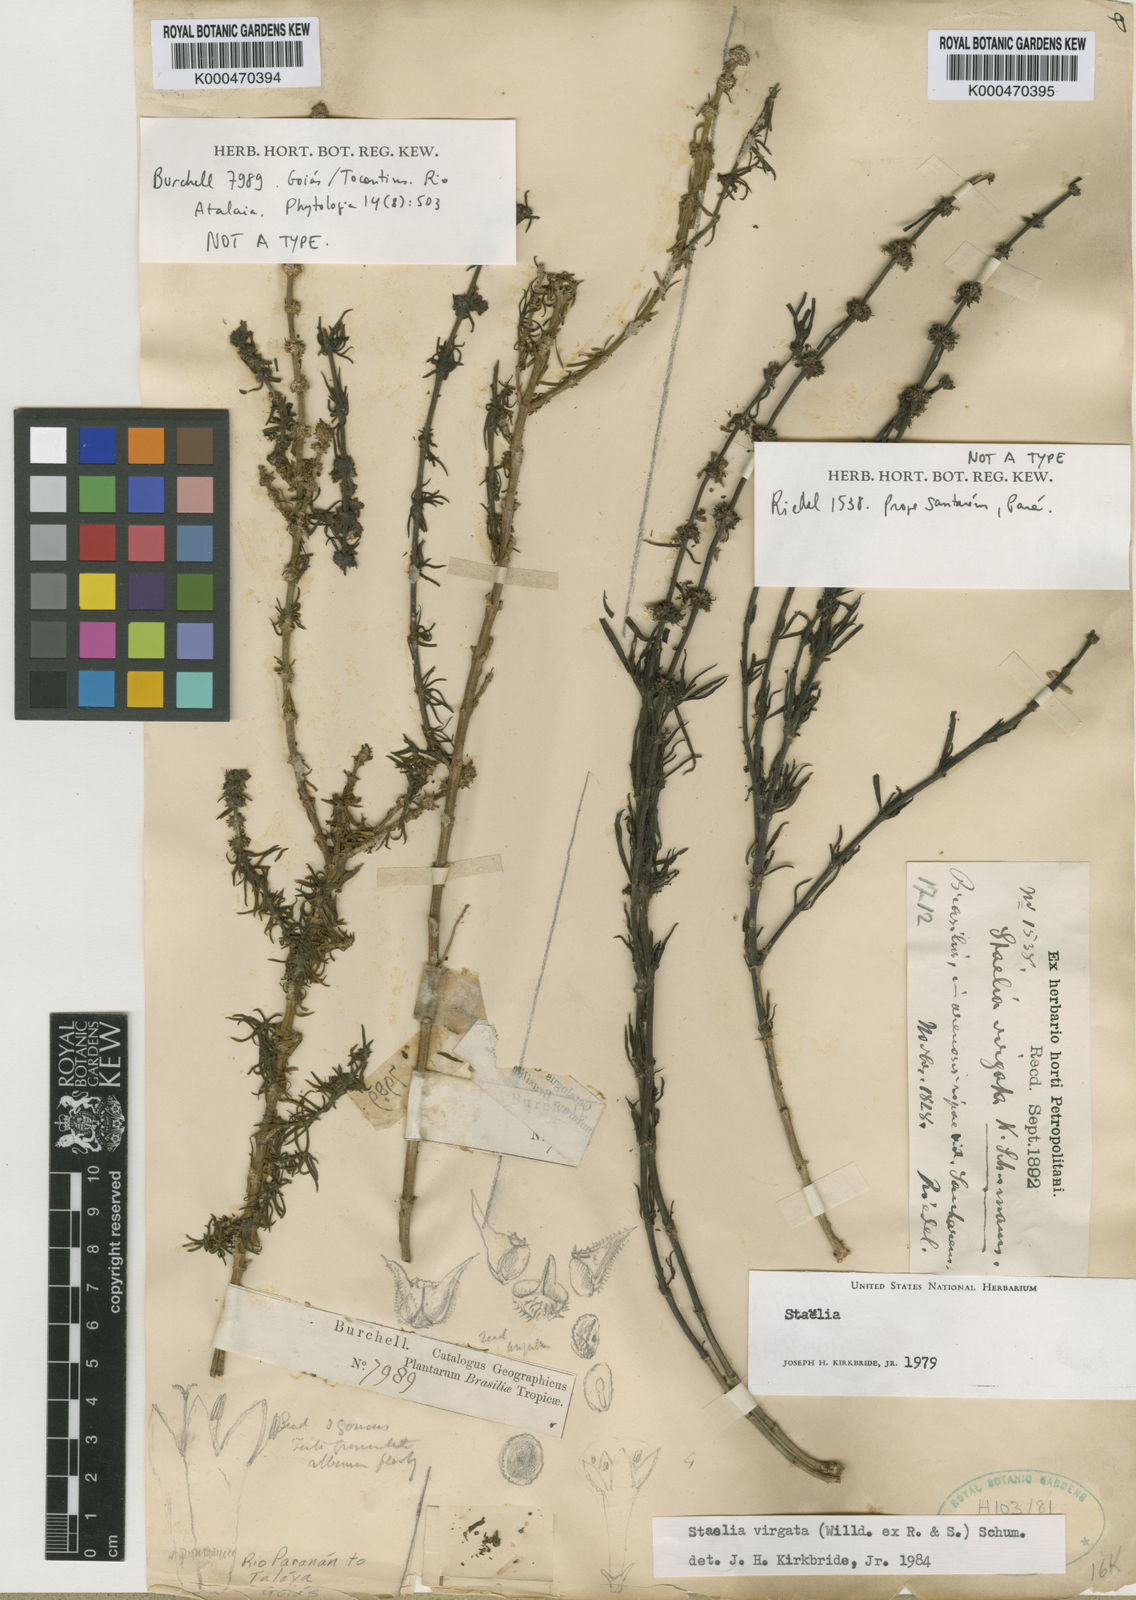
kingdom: Plantae
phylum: Tracheophyta
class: Magnoliopsida
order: Gentianales
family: Rubiaceae
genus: Staelia
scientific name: Staelia virgata
